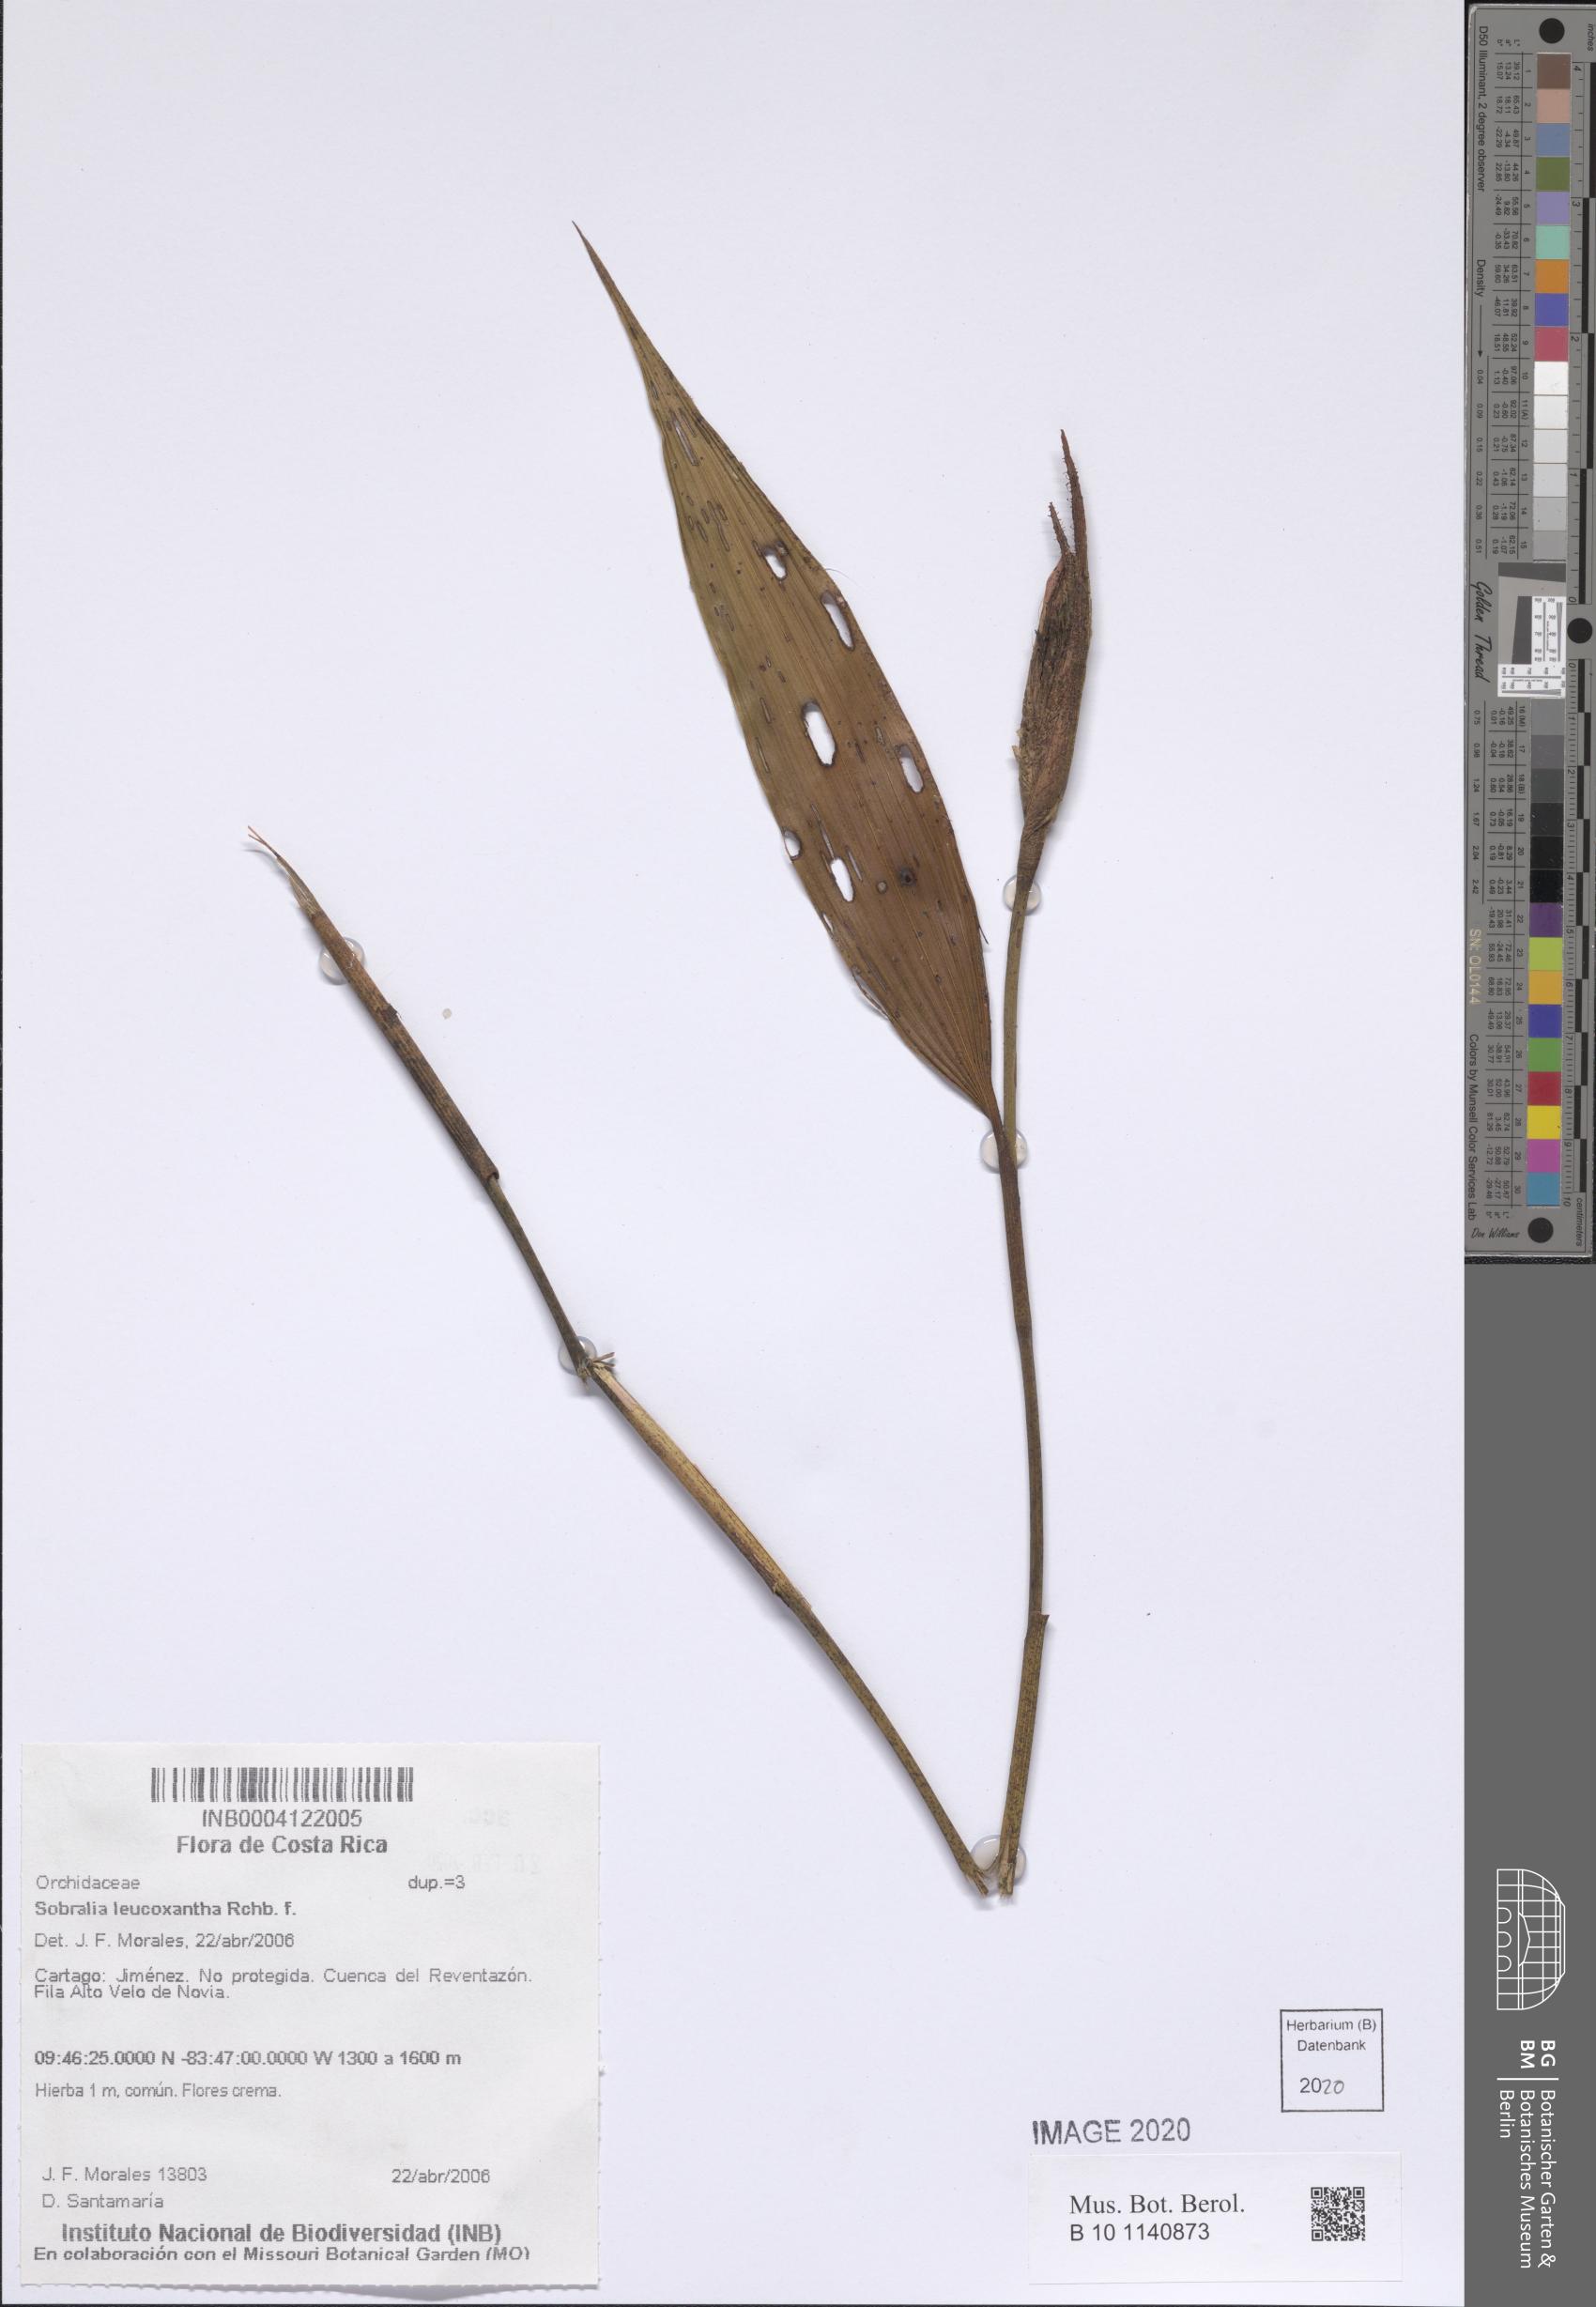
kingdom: Plantae
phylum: Tracheophyta
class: Liliopsida
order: Asparagales
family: Orchidaceae
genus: Sobralia
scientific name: Sobralia leucoxantha
